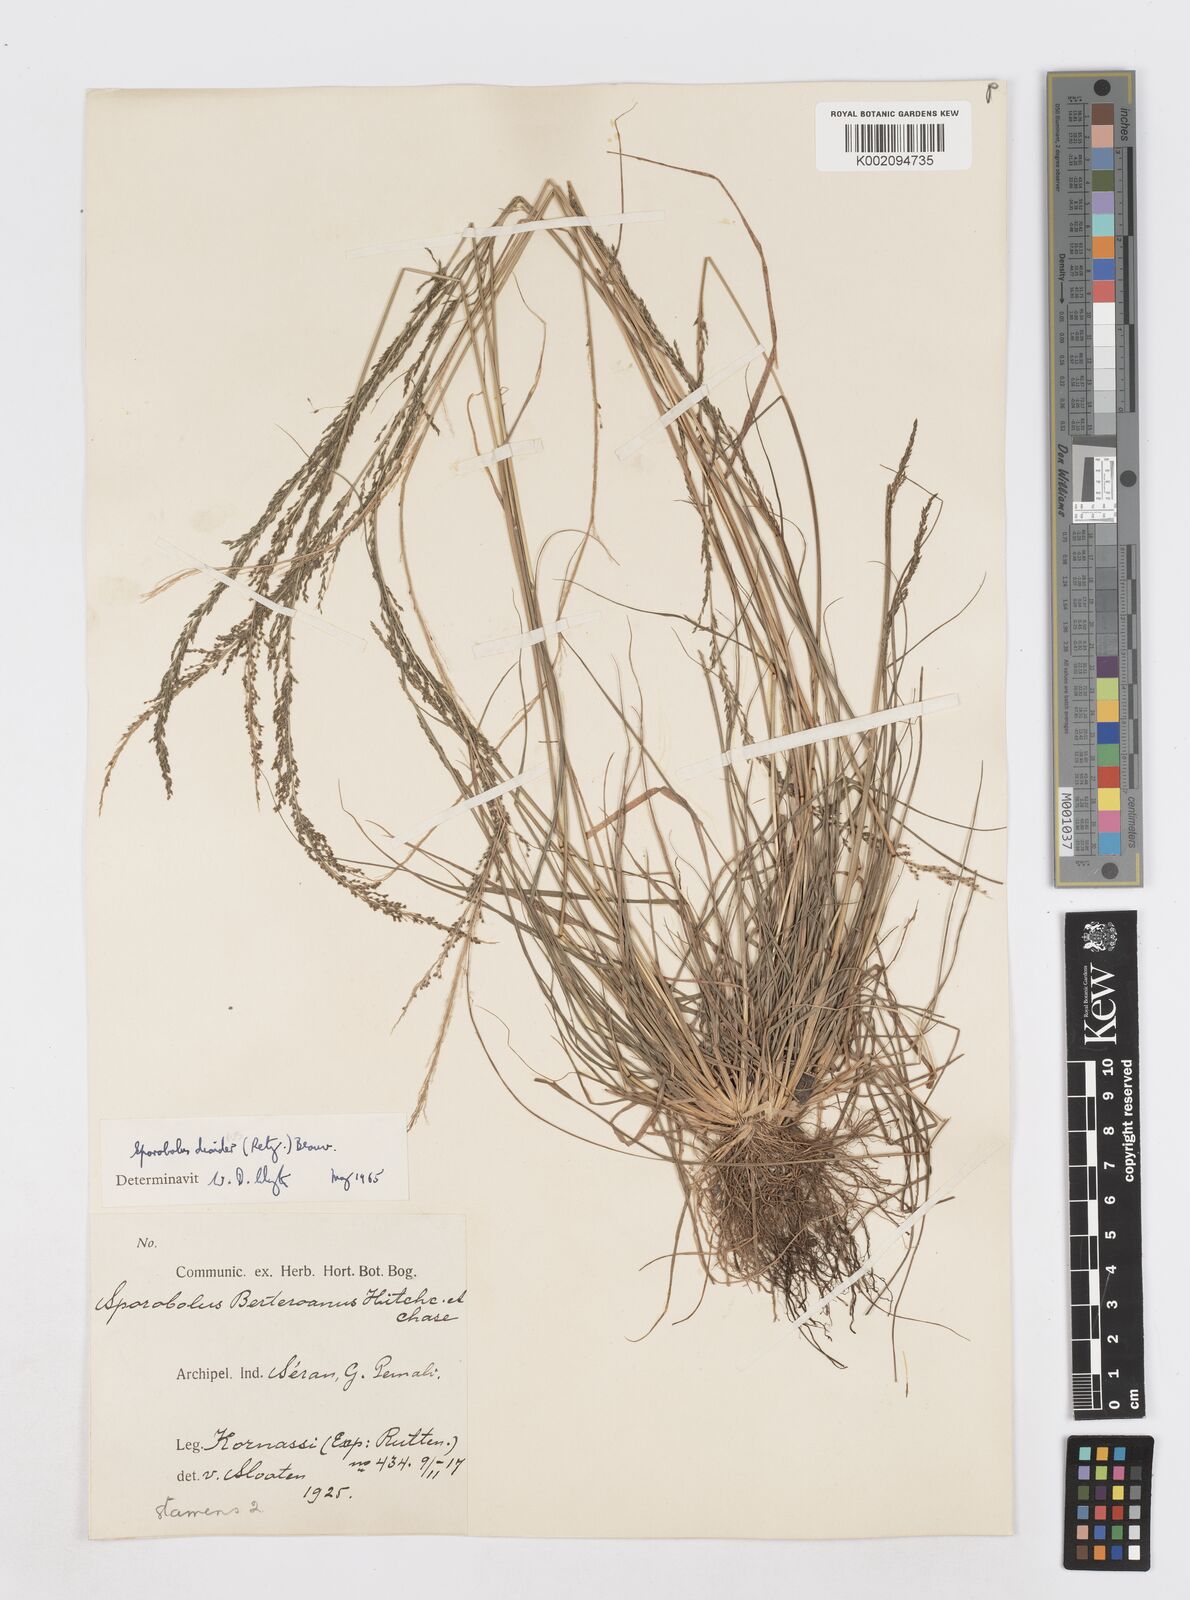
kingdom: Plantae
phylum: Tracheophyta
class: Liliopsida
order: Poales
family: Poaceae
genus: Sporobolus
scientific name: Sporobolus diandrus
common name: Tussock dropseed
